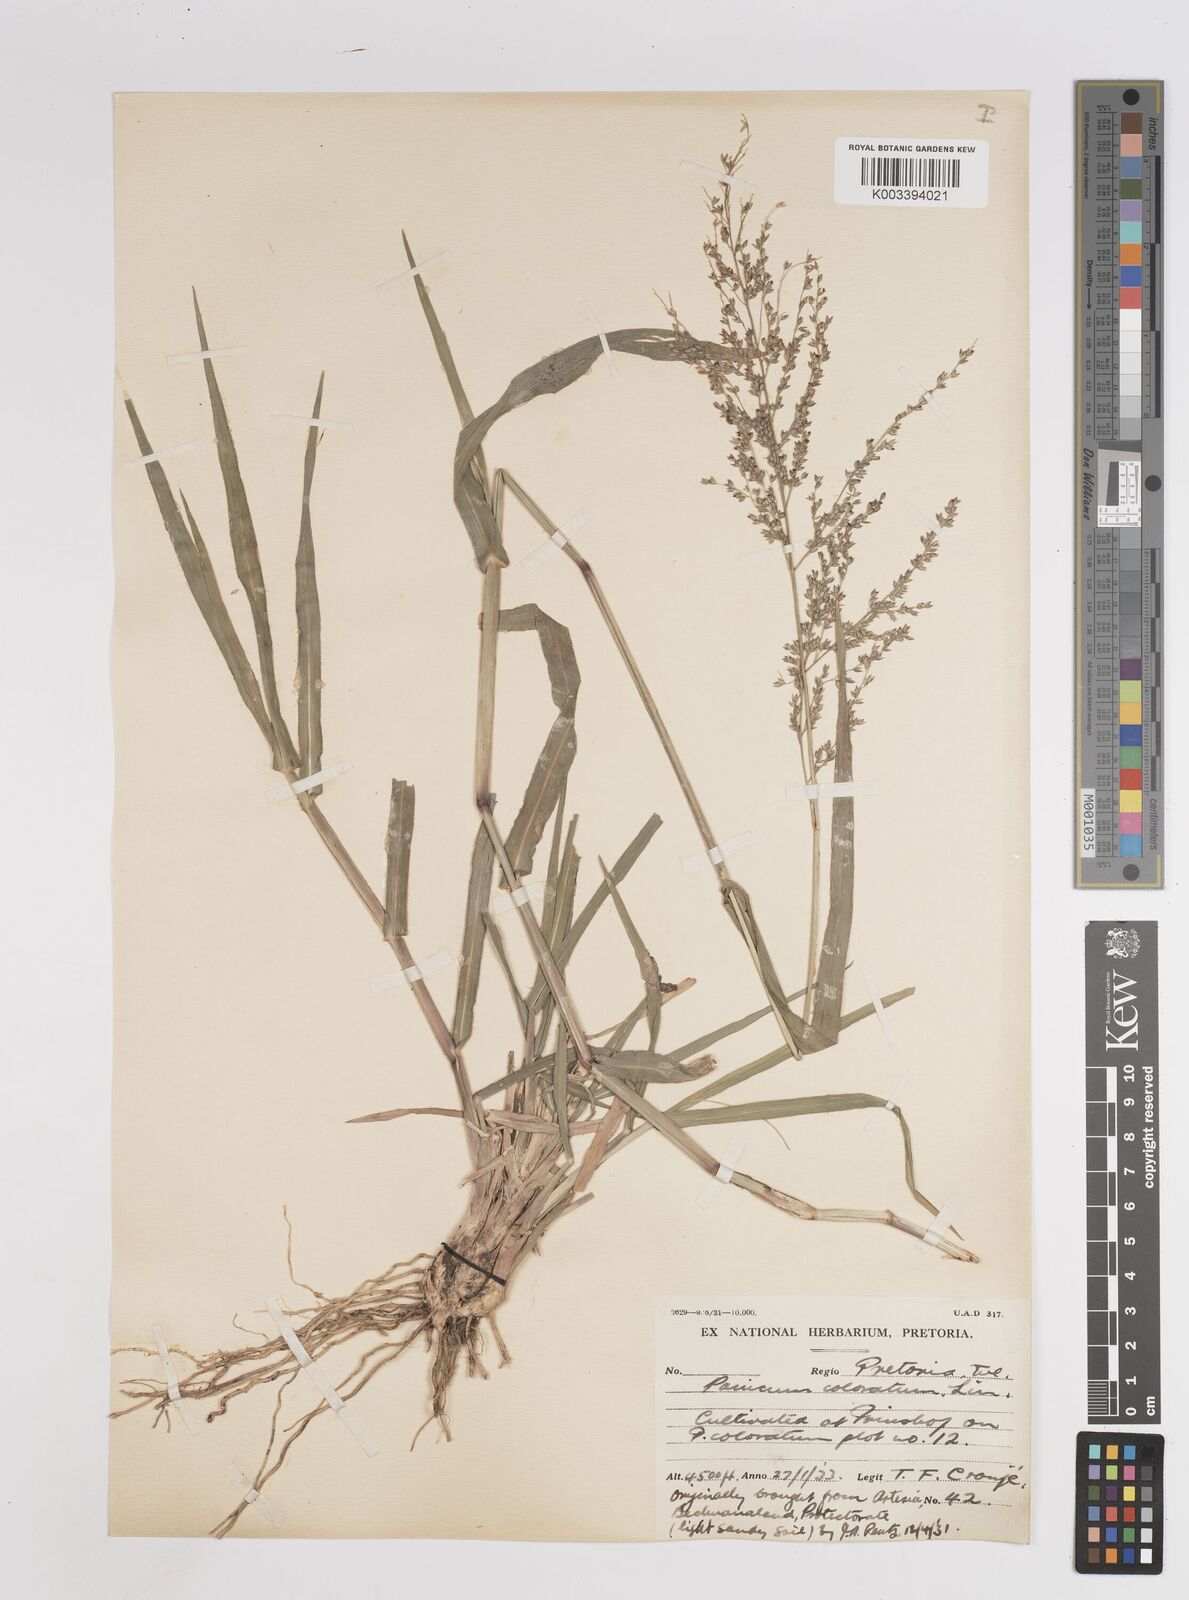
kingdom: Plantae
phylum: Tracheophyta
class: Liliopsida
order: Poales
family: Poaceae
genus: Panicum
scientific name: Panicum coloratum
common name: Kleingrass
